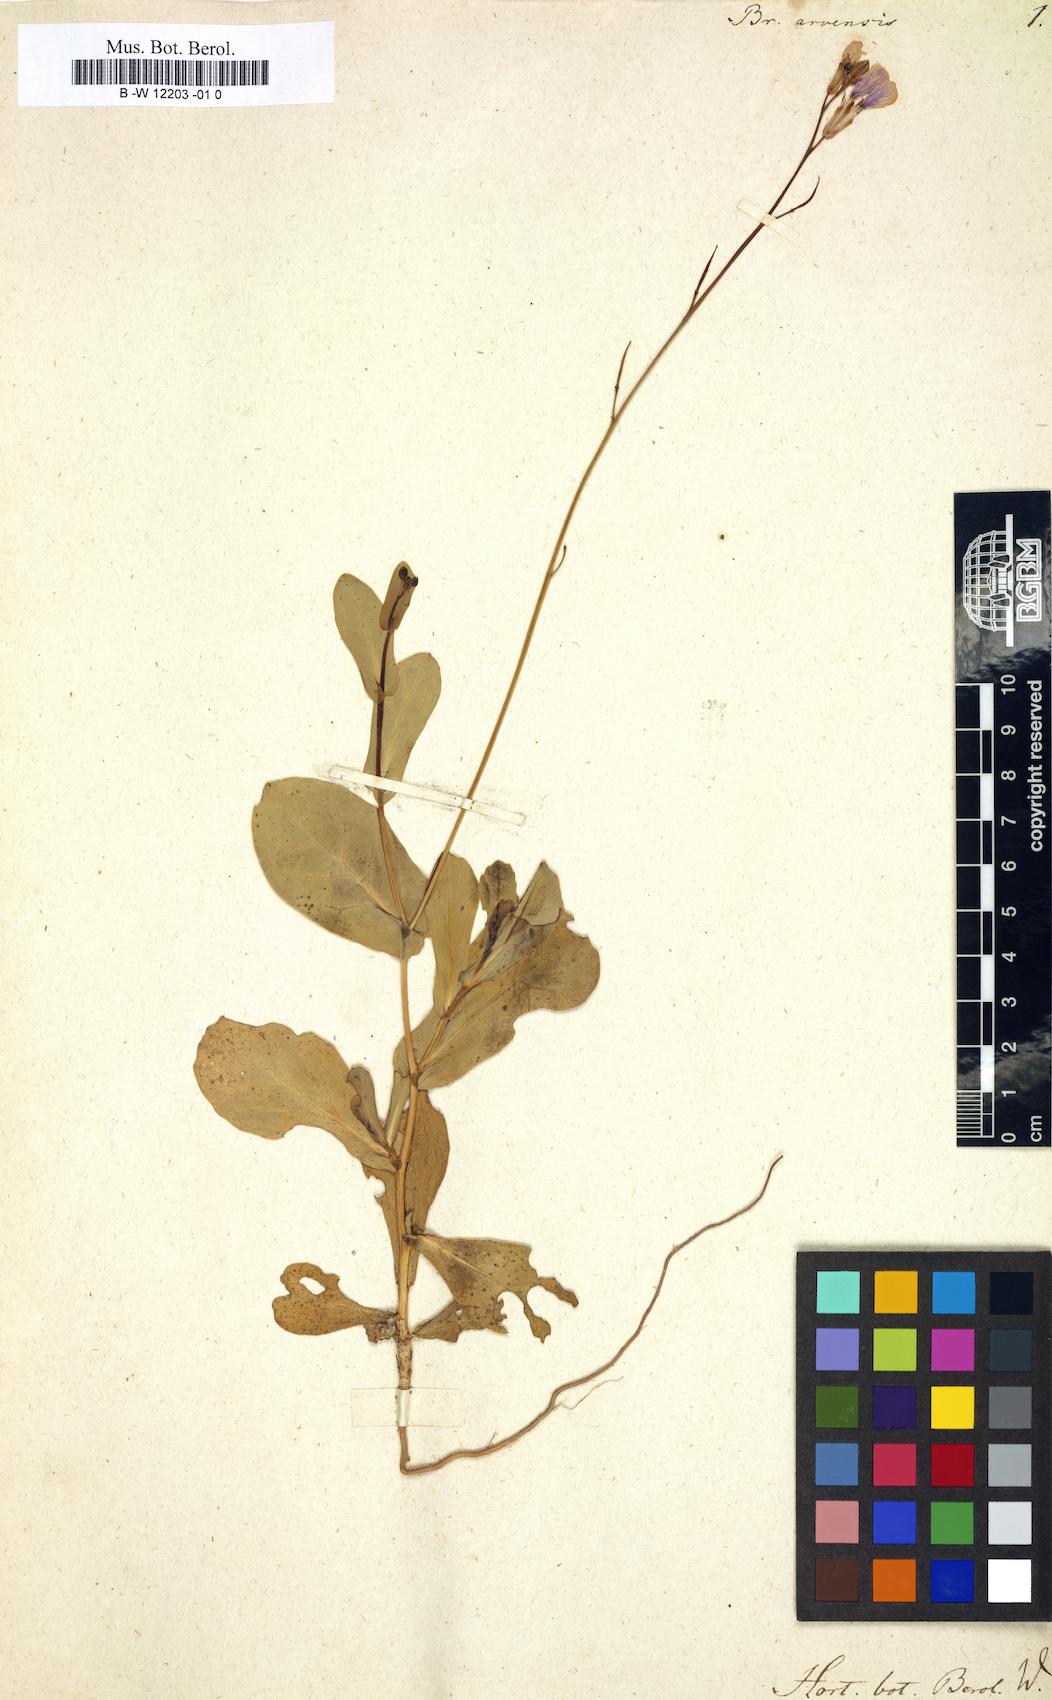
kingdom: Plantae
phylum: Tracheophyta
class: Magnoliopsida
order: Brassicales
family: Brassicaceae
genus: Brassica
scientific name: Brassica arvensis
